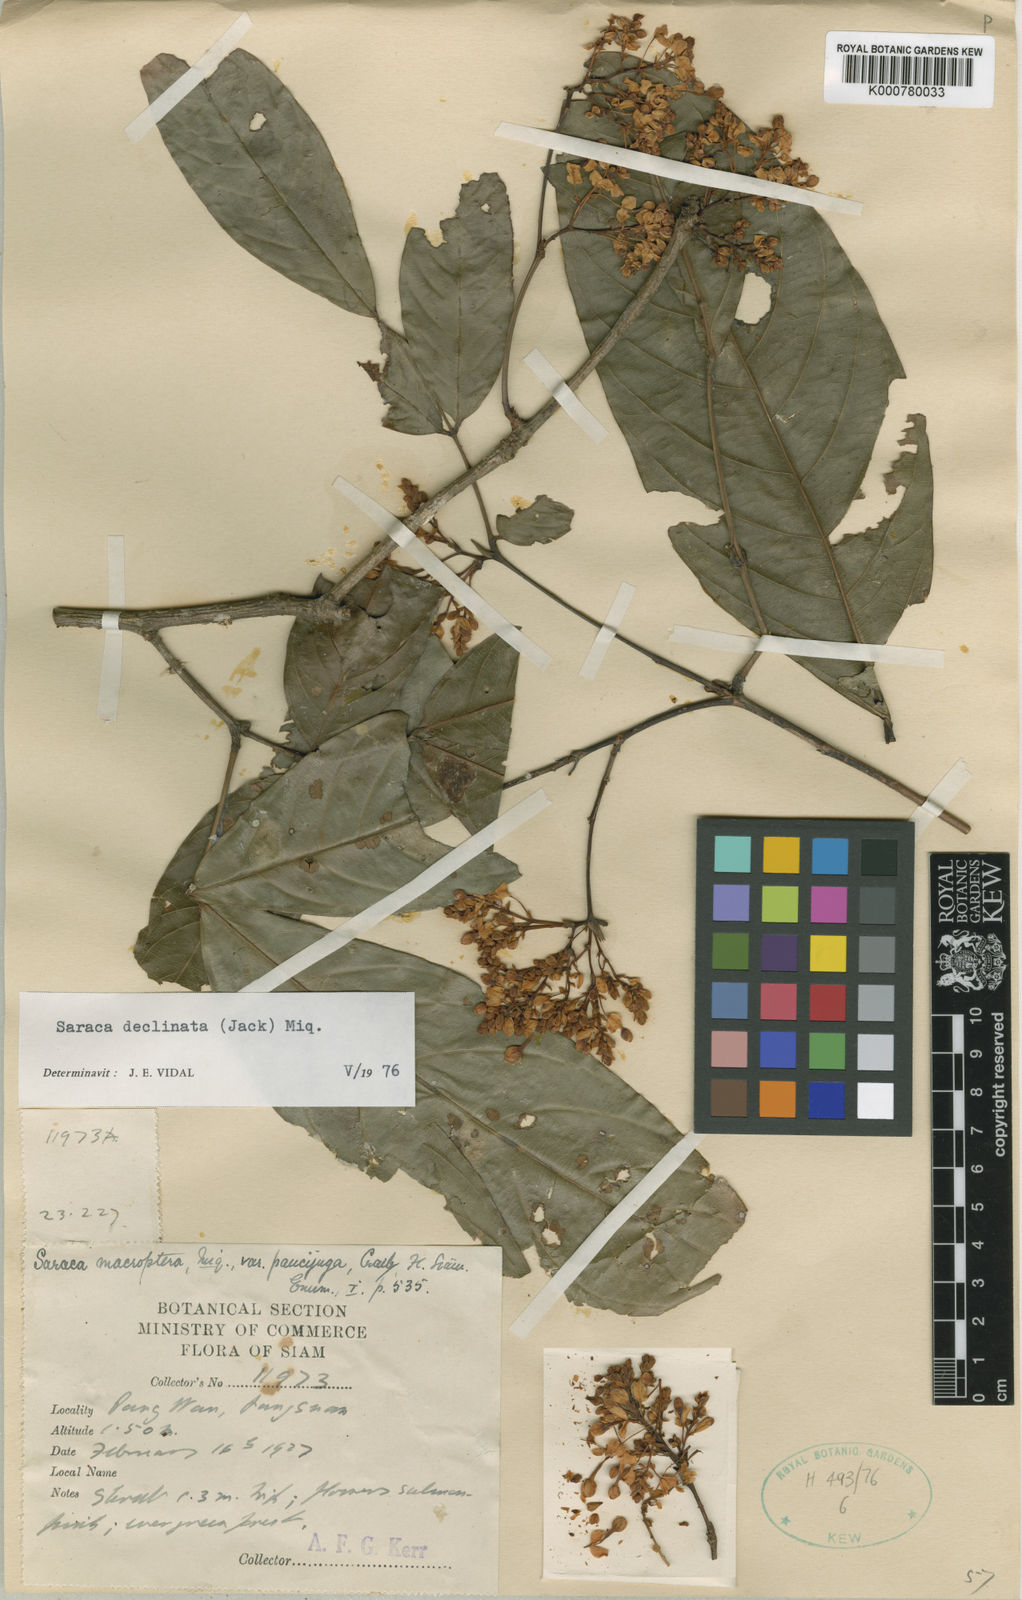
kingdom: Plantae
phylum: Tracheophyta
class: Magnoliopsida
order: Fabales
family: Fabaceae
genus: Saraca
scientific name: Saraca declinata
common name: Red saraca
